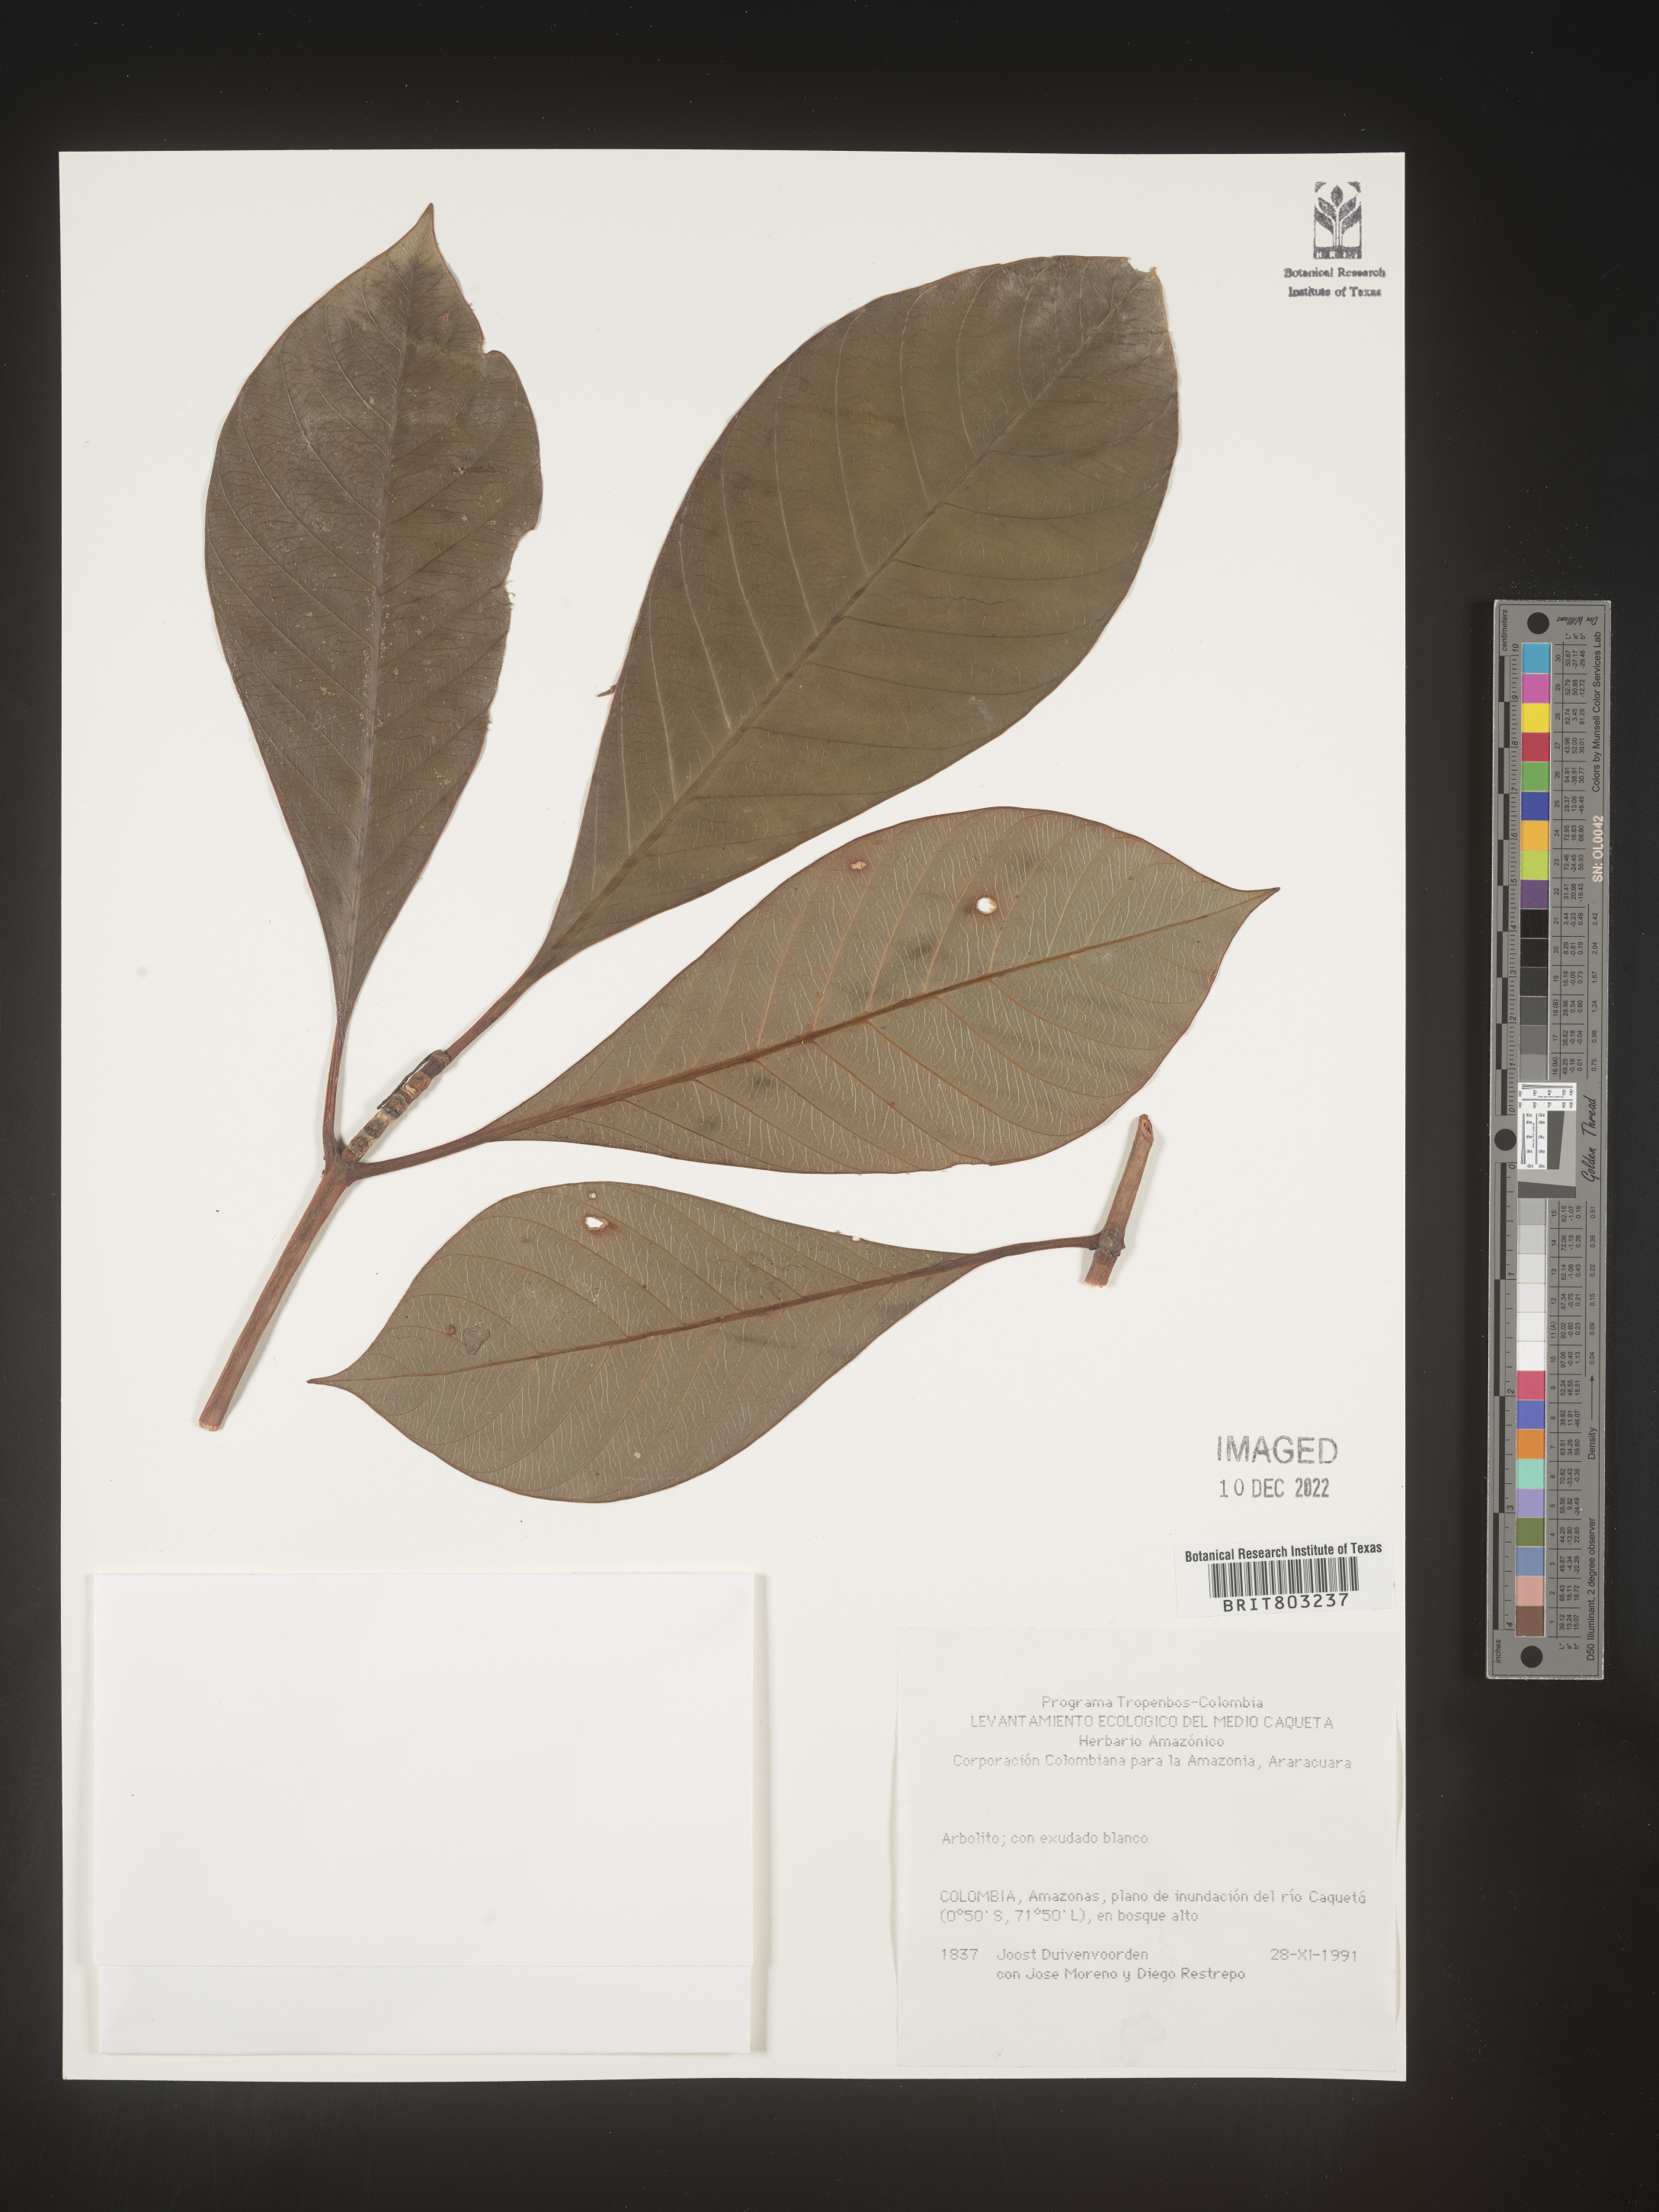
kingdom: Plantae
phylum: Tracheophyta
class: Magnoliopsida
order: Malpighiales
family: Clusiaceae
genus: Tovomita
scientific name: Tovomita
